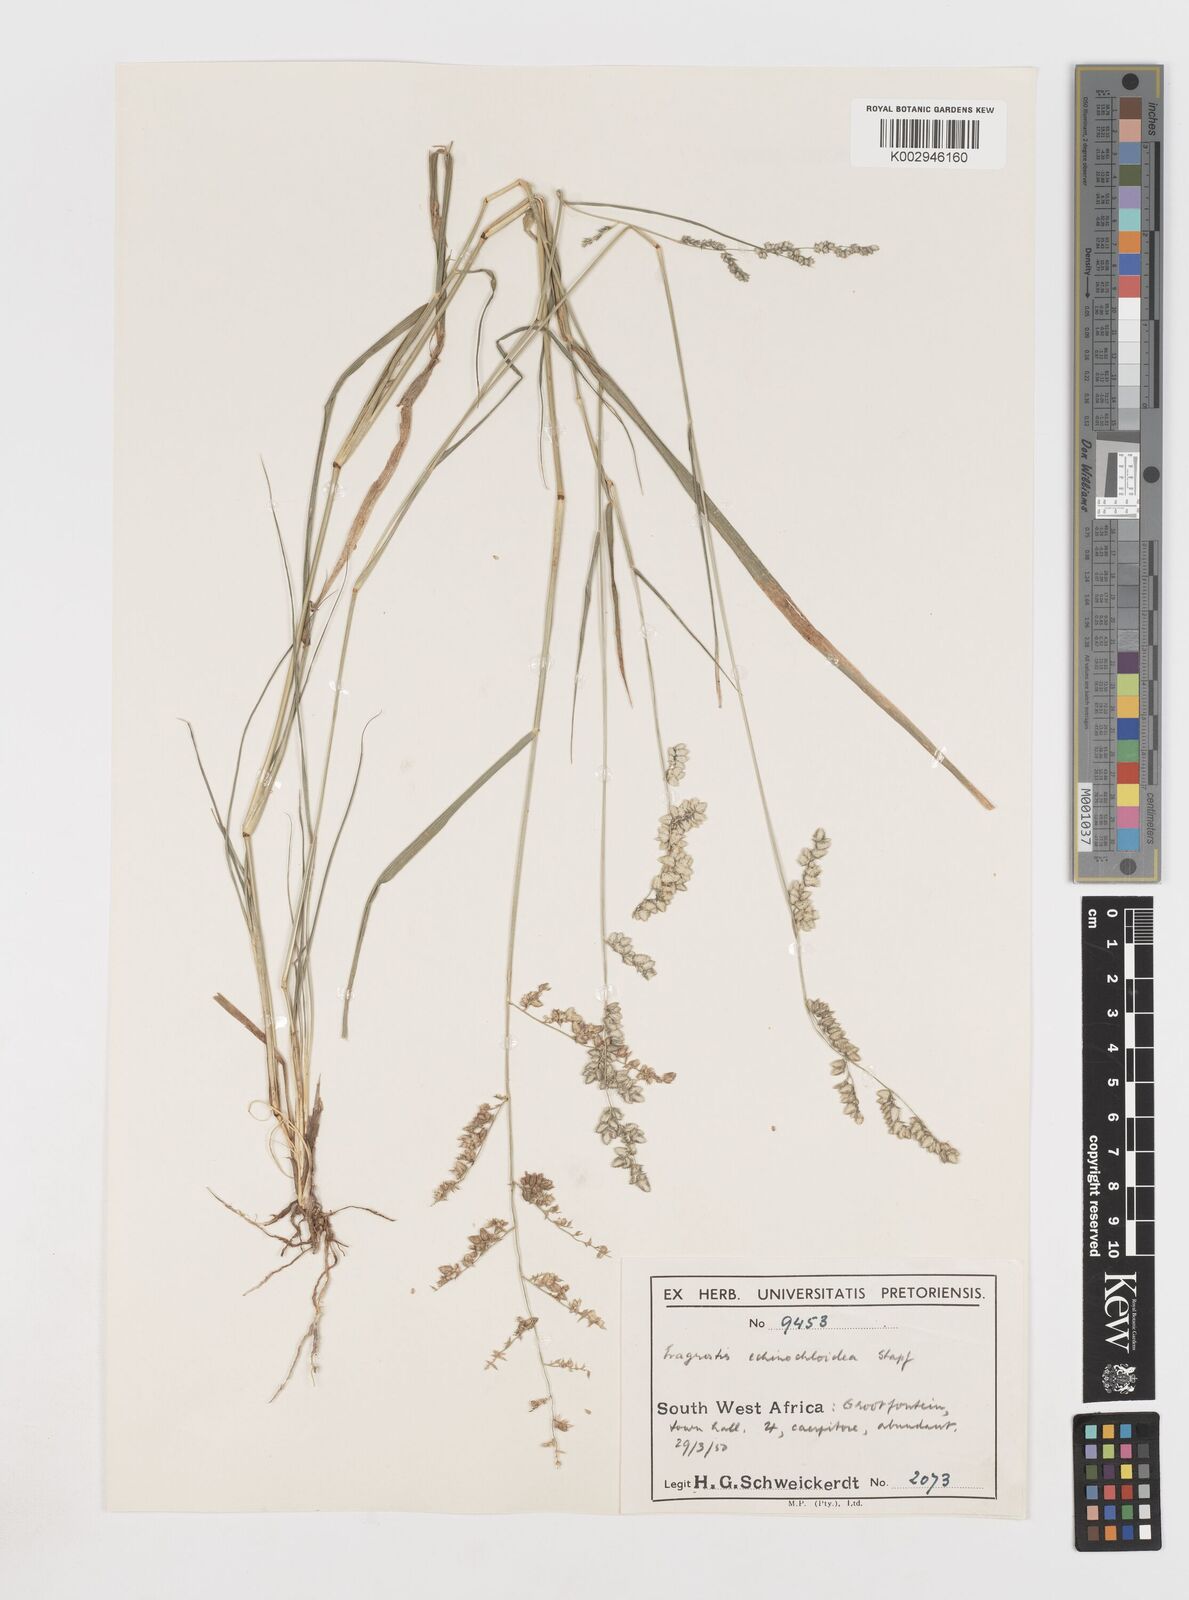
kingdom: Plantae
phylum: Tracheophyta
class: Liliopsida
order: Poales
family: Poaceae
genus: Eragrostis
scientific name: Eragrostis echinochloidea
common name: African lovegrass
